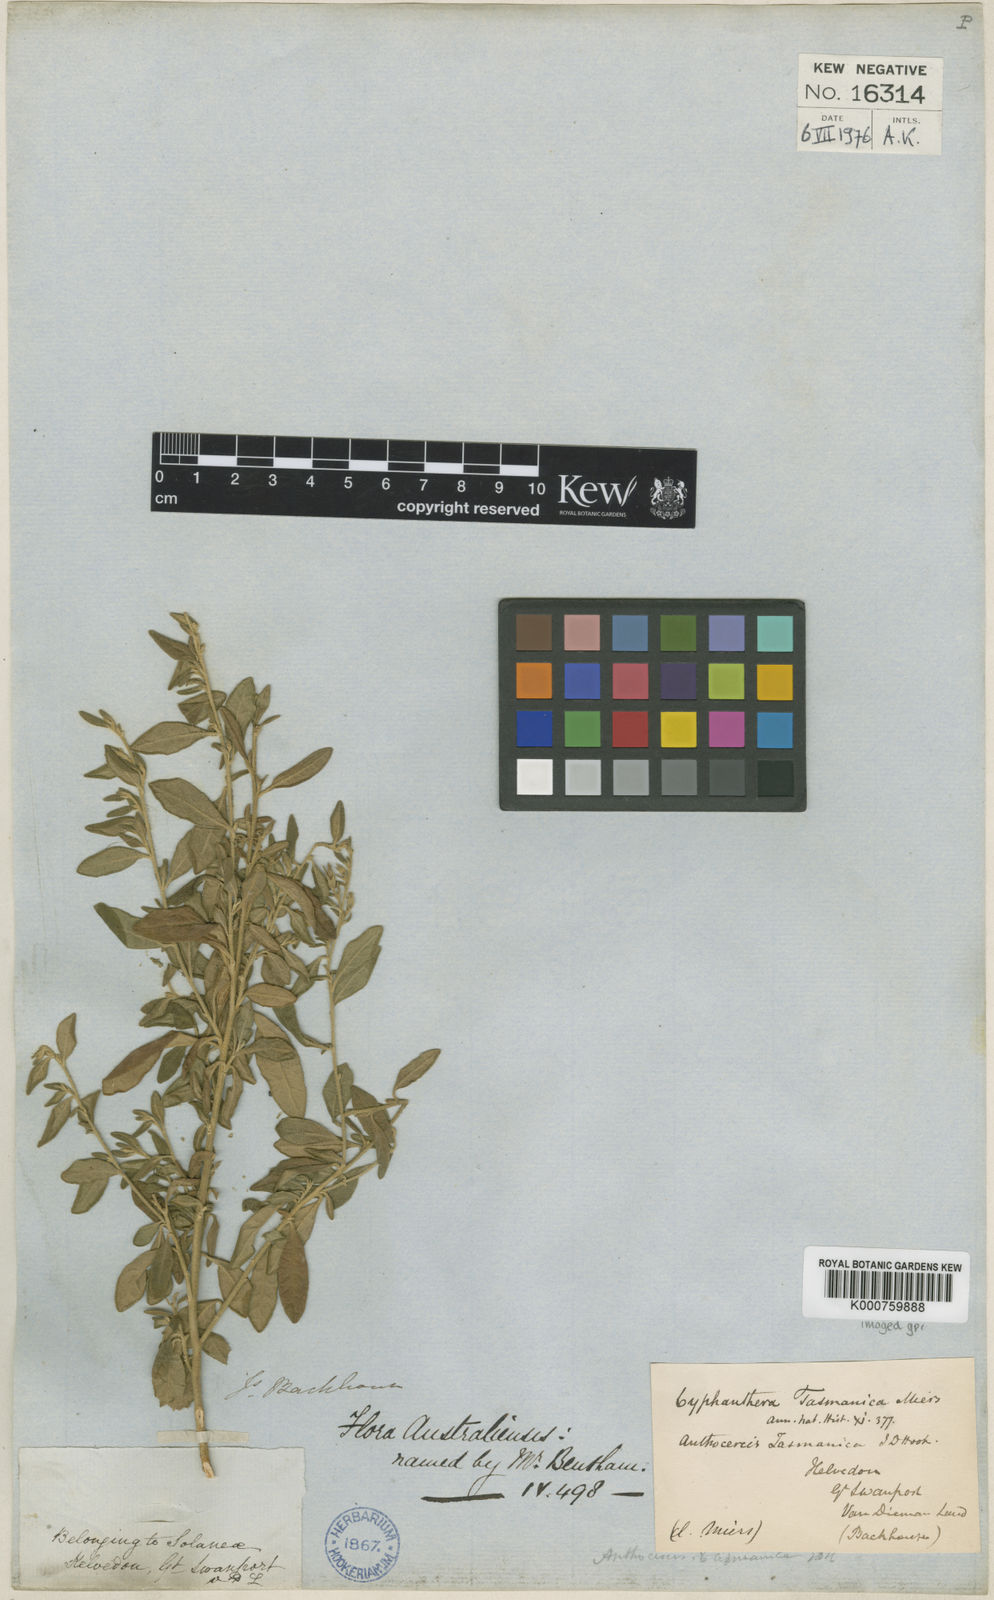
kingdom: Plantae
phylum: Tracheophyta
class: Magnoliopsida
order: Solanales
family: Solanaceae
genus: Cyphanthera
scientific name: Cyphanthera tasmanica
